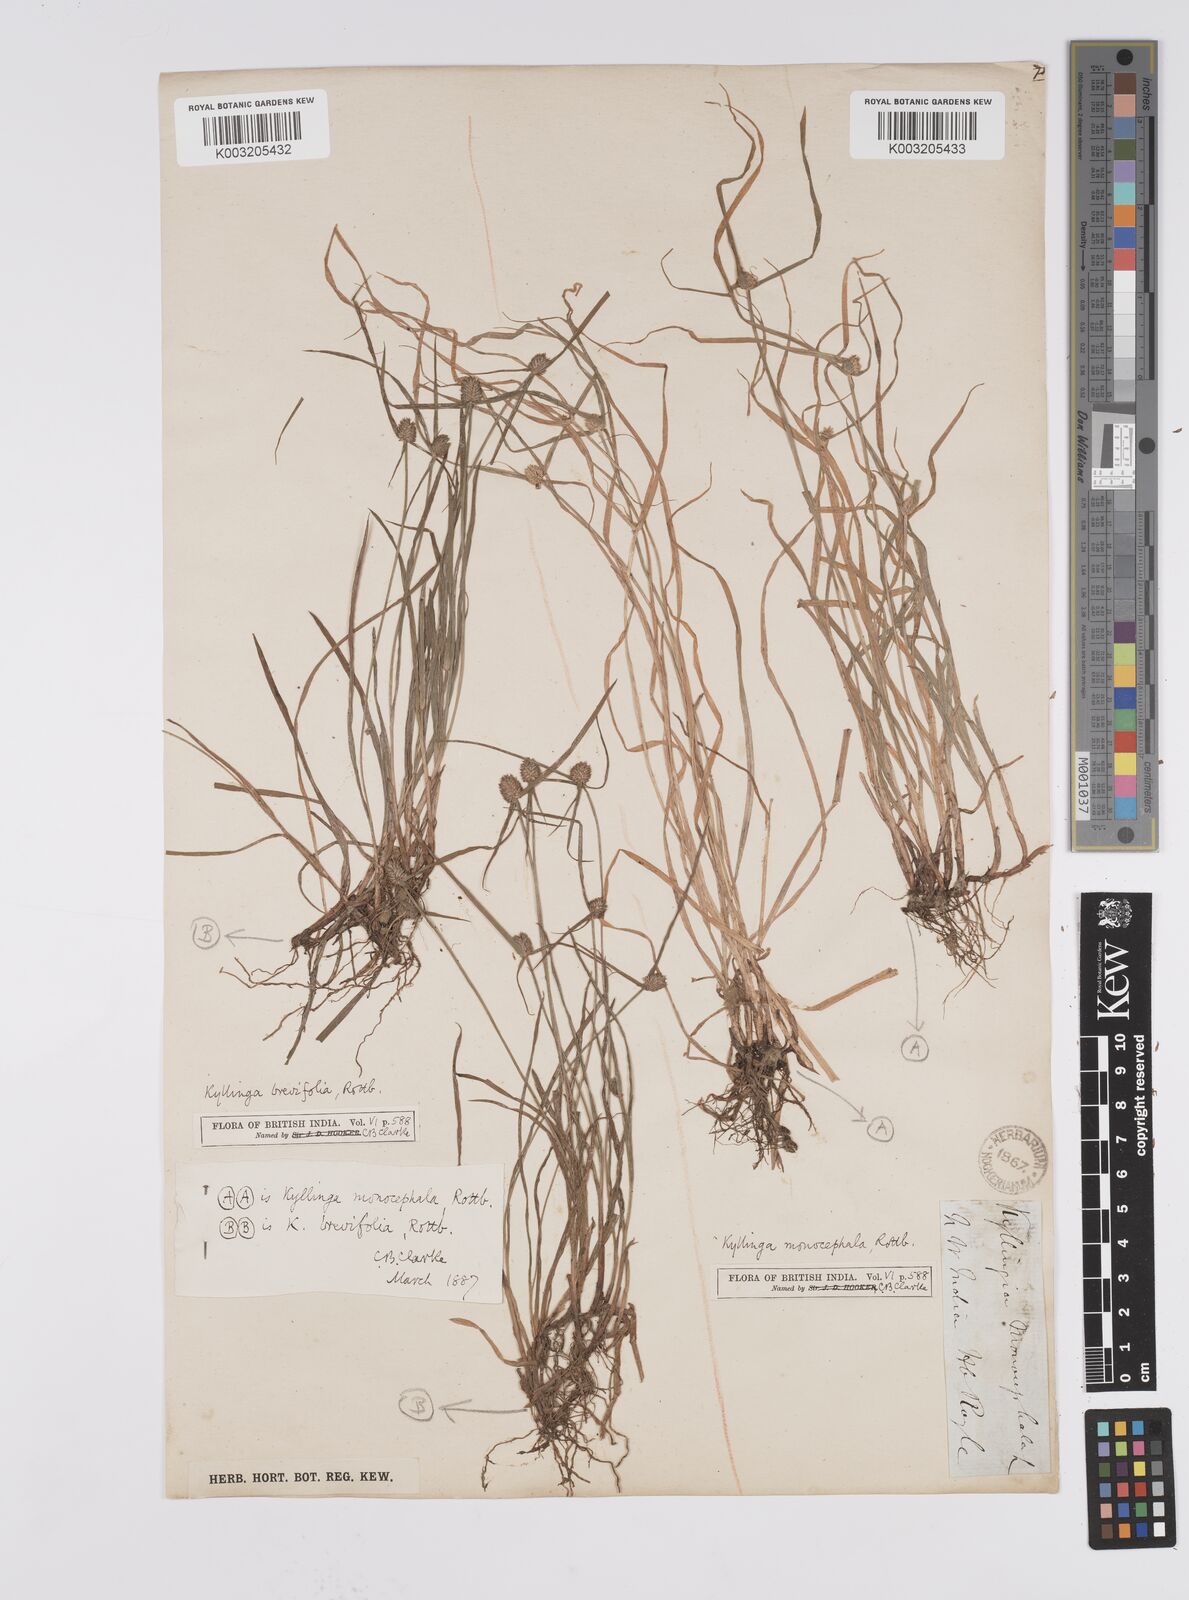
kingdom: Plantae
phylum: Tracheophyta
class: Liliopsida
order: Poales
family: Cyperaceae
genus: Cyperus
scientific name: Cyperus nemoralis
